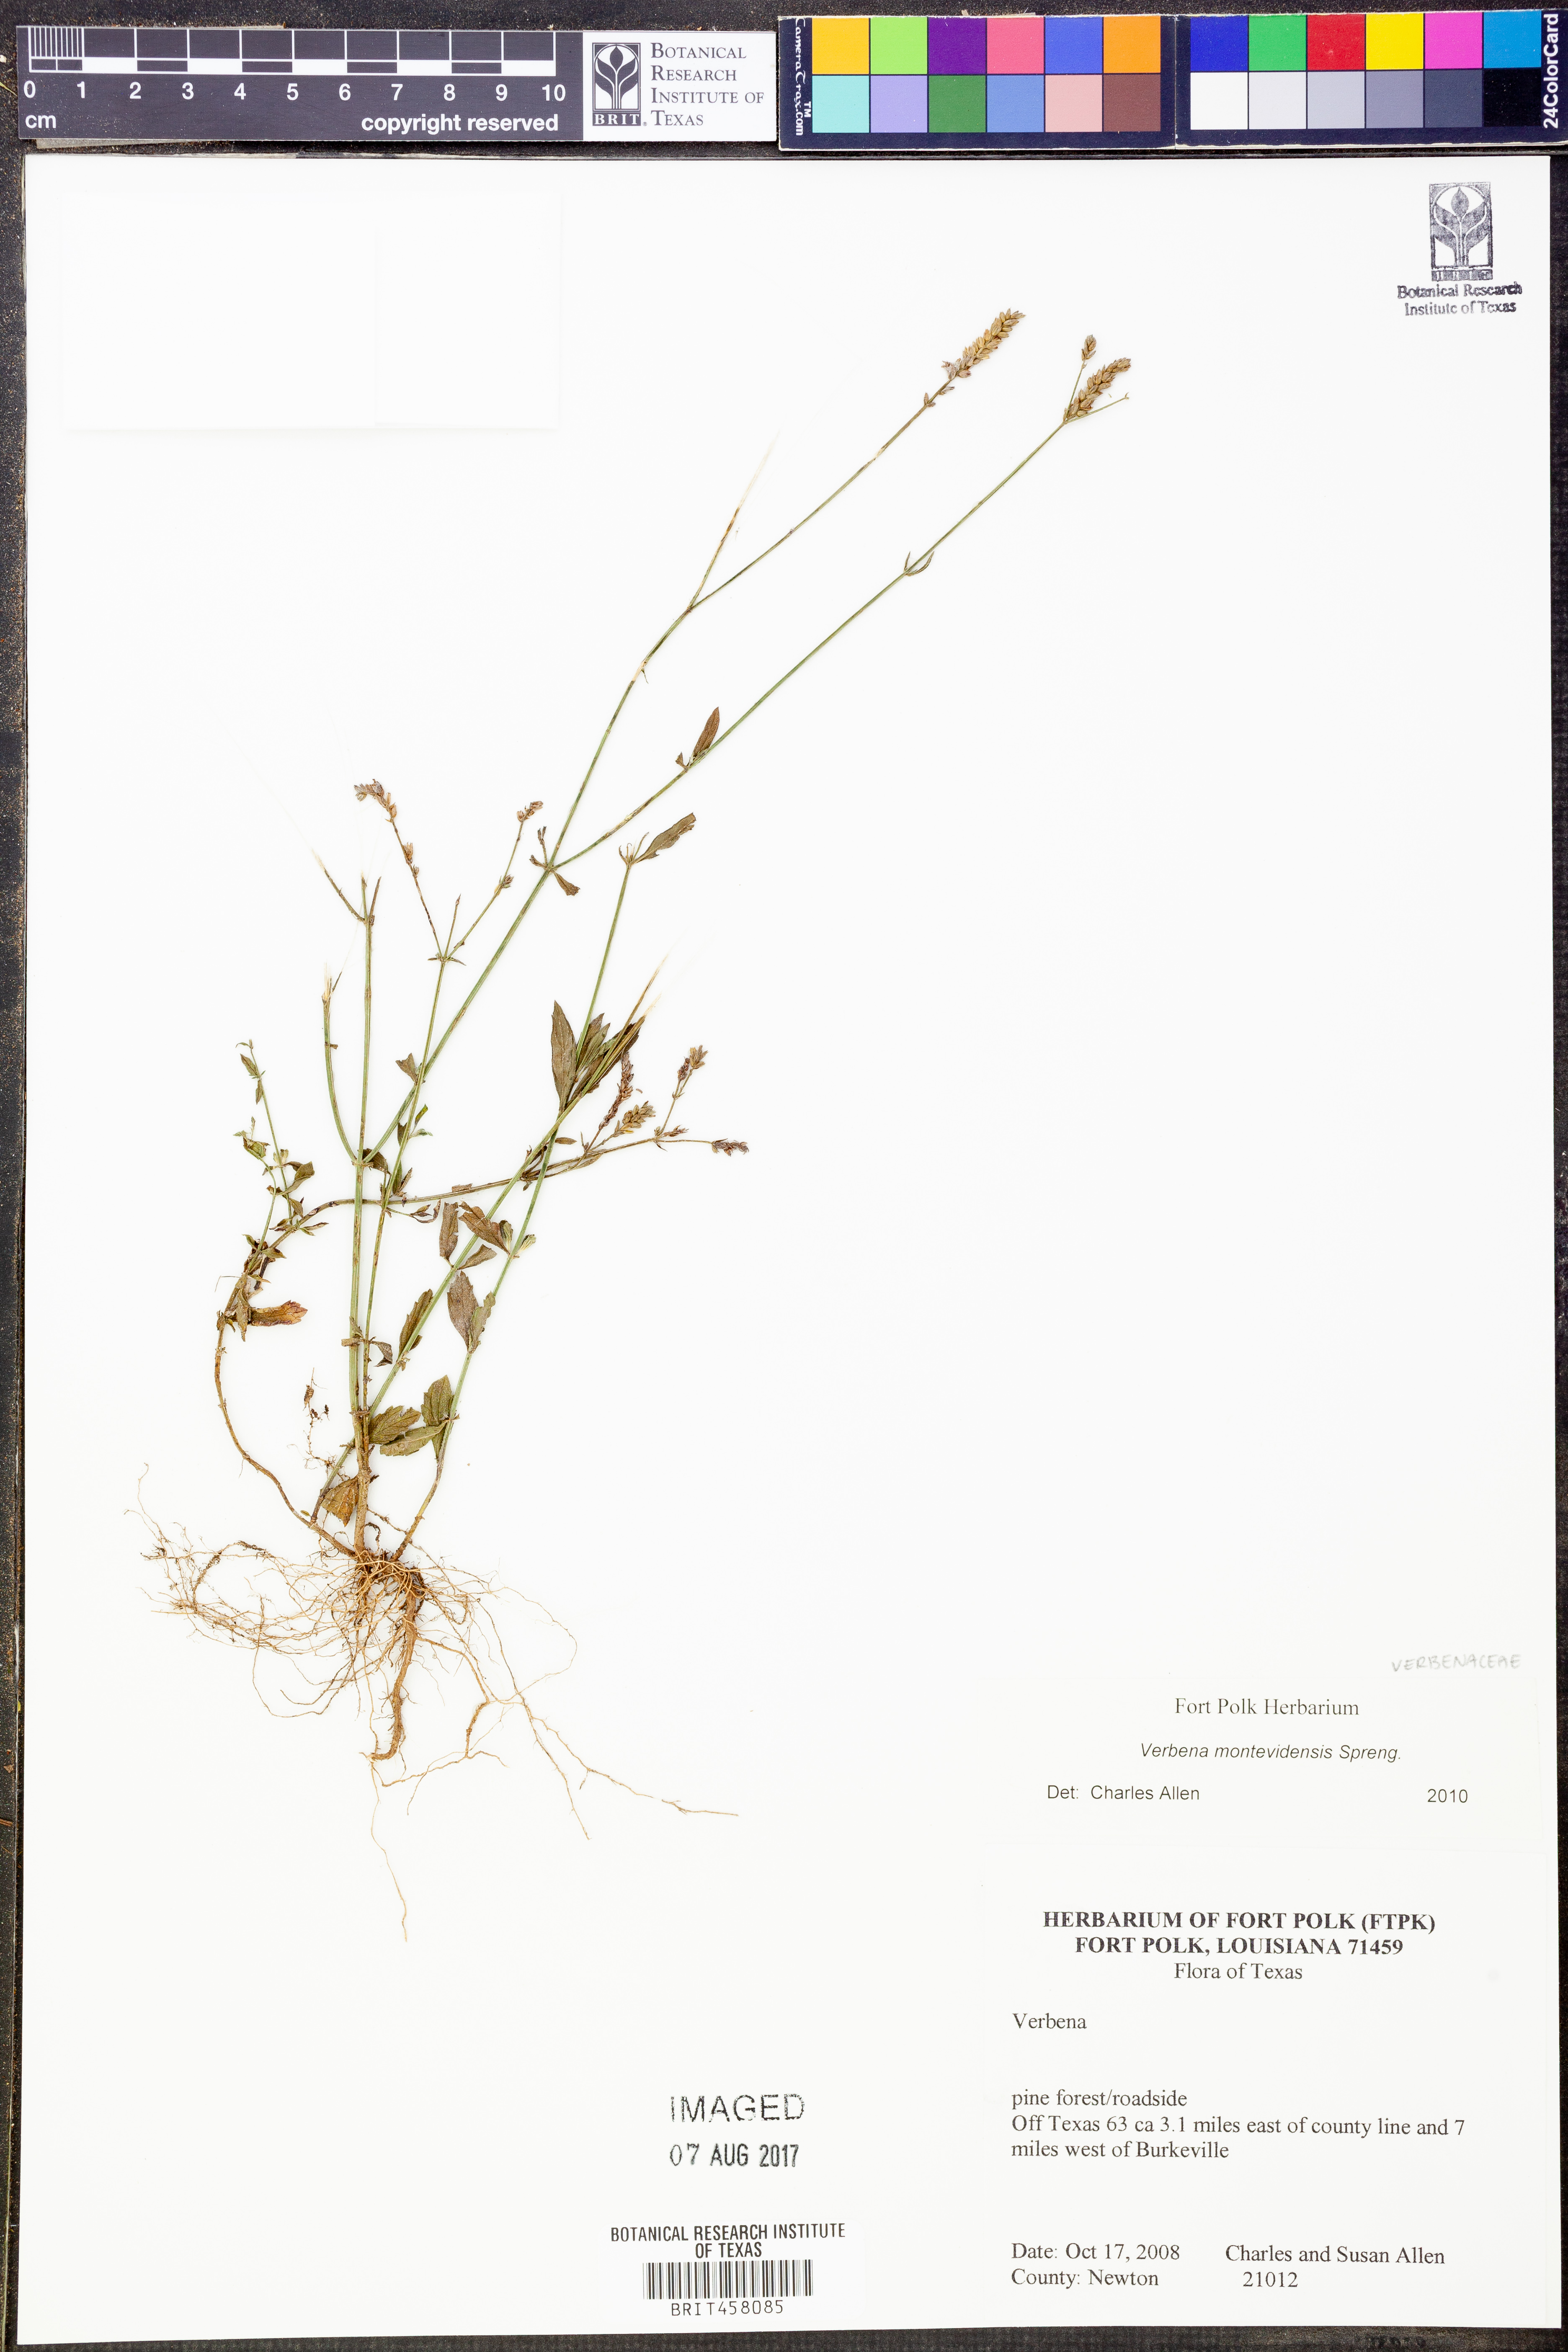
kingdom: Plantae
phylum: Tracheophyta
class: Magnoliopsida
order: Lamiales
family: Verbenaceae
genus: Verbena
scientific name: Verbena montevidensis
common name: Uruguayan vervain
